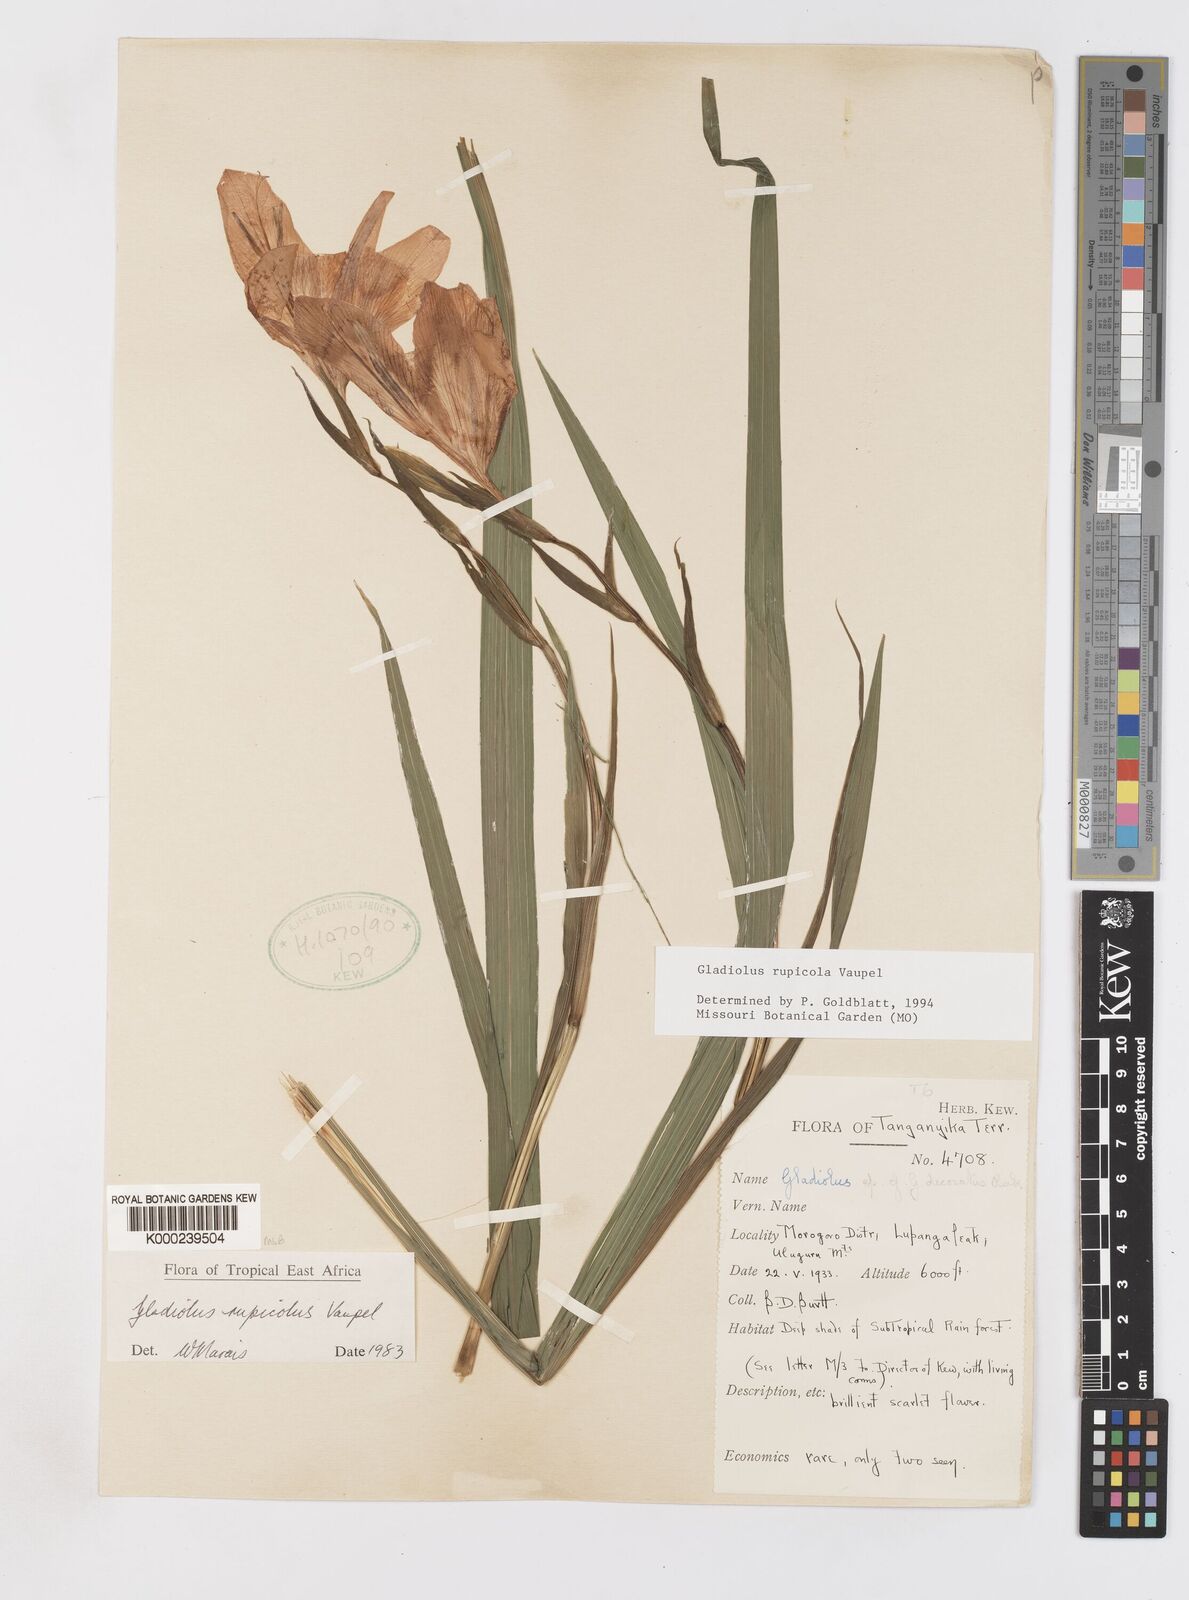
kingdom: Plantae
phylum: Tracheophyta
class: Liliopsida
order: Asparagales
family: Iridaceae
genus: Gladiolus
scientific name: Gladiolus rupicola
